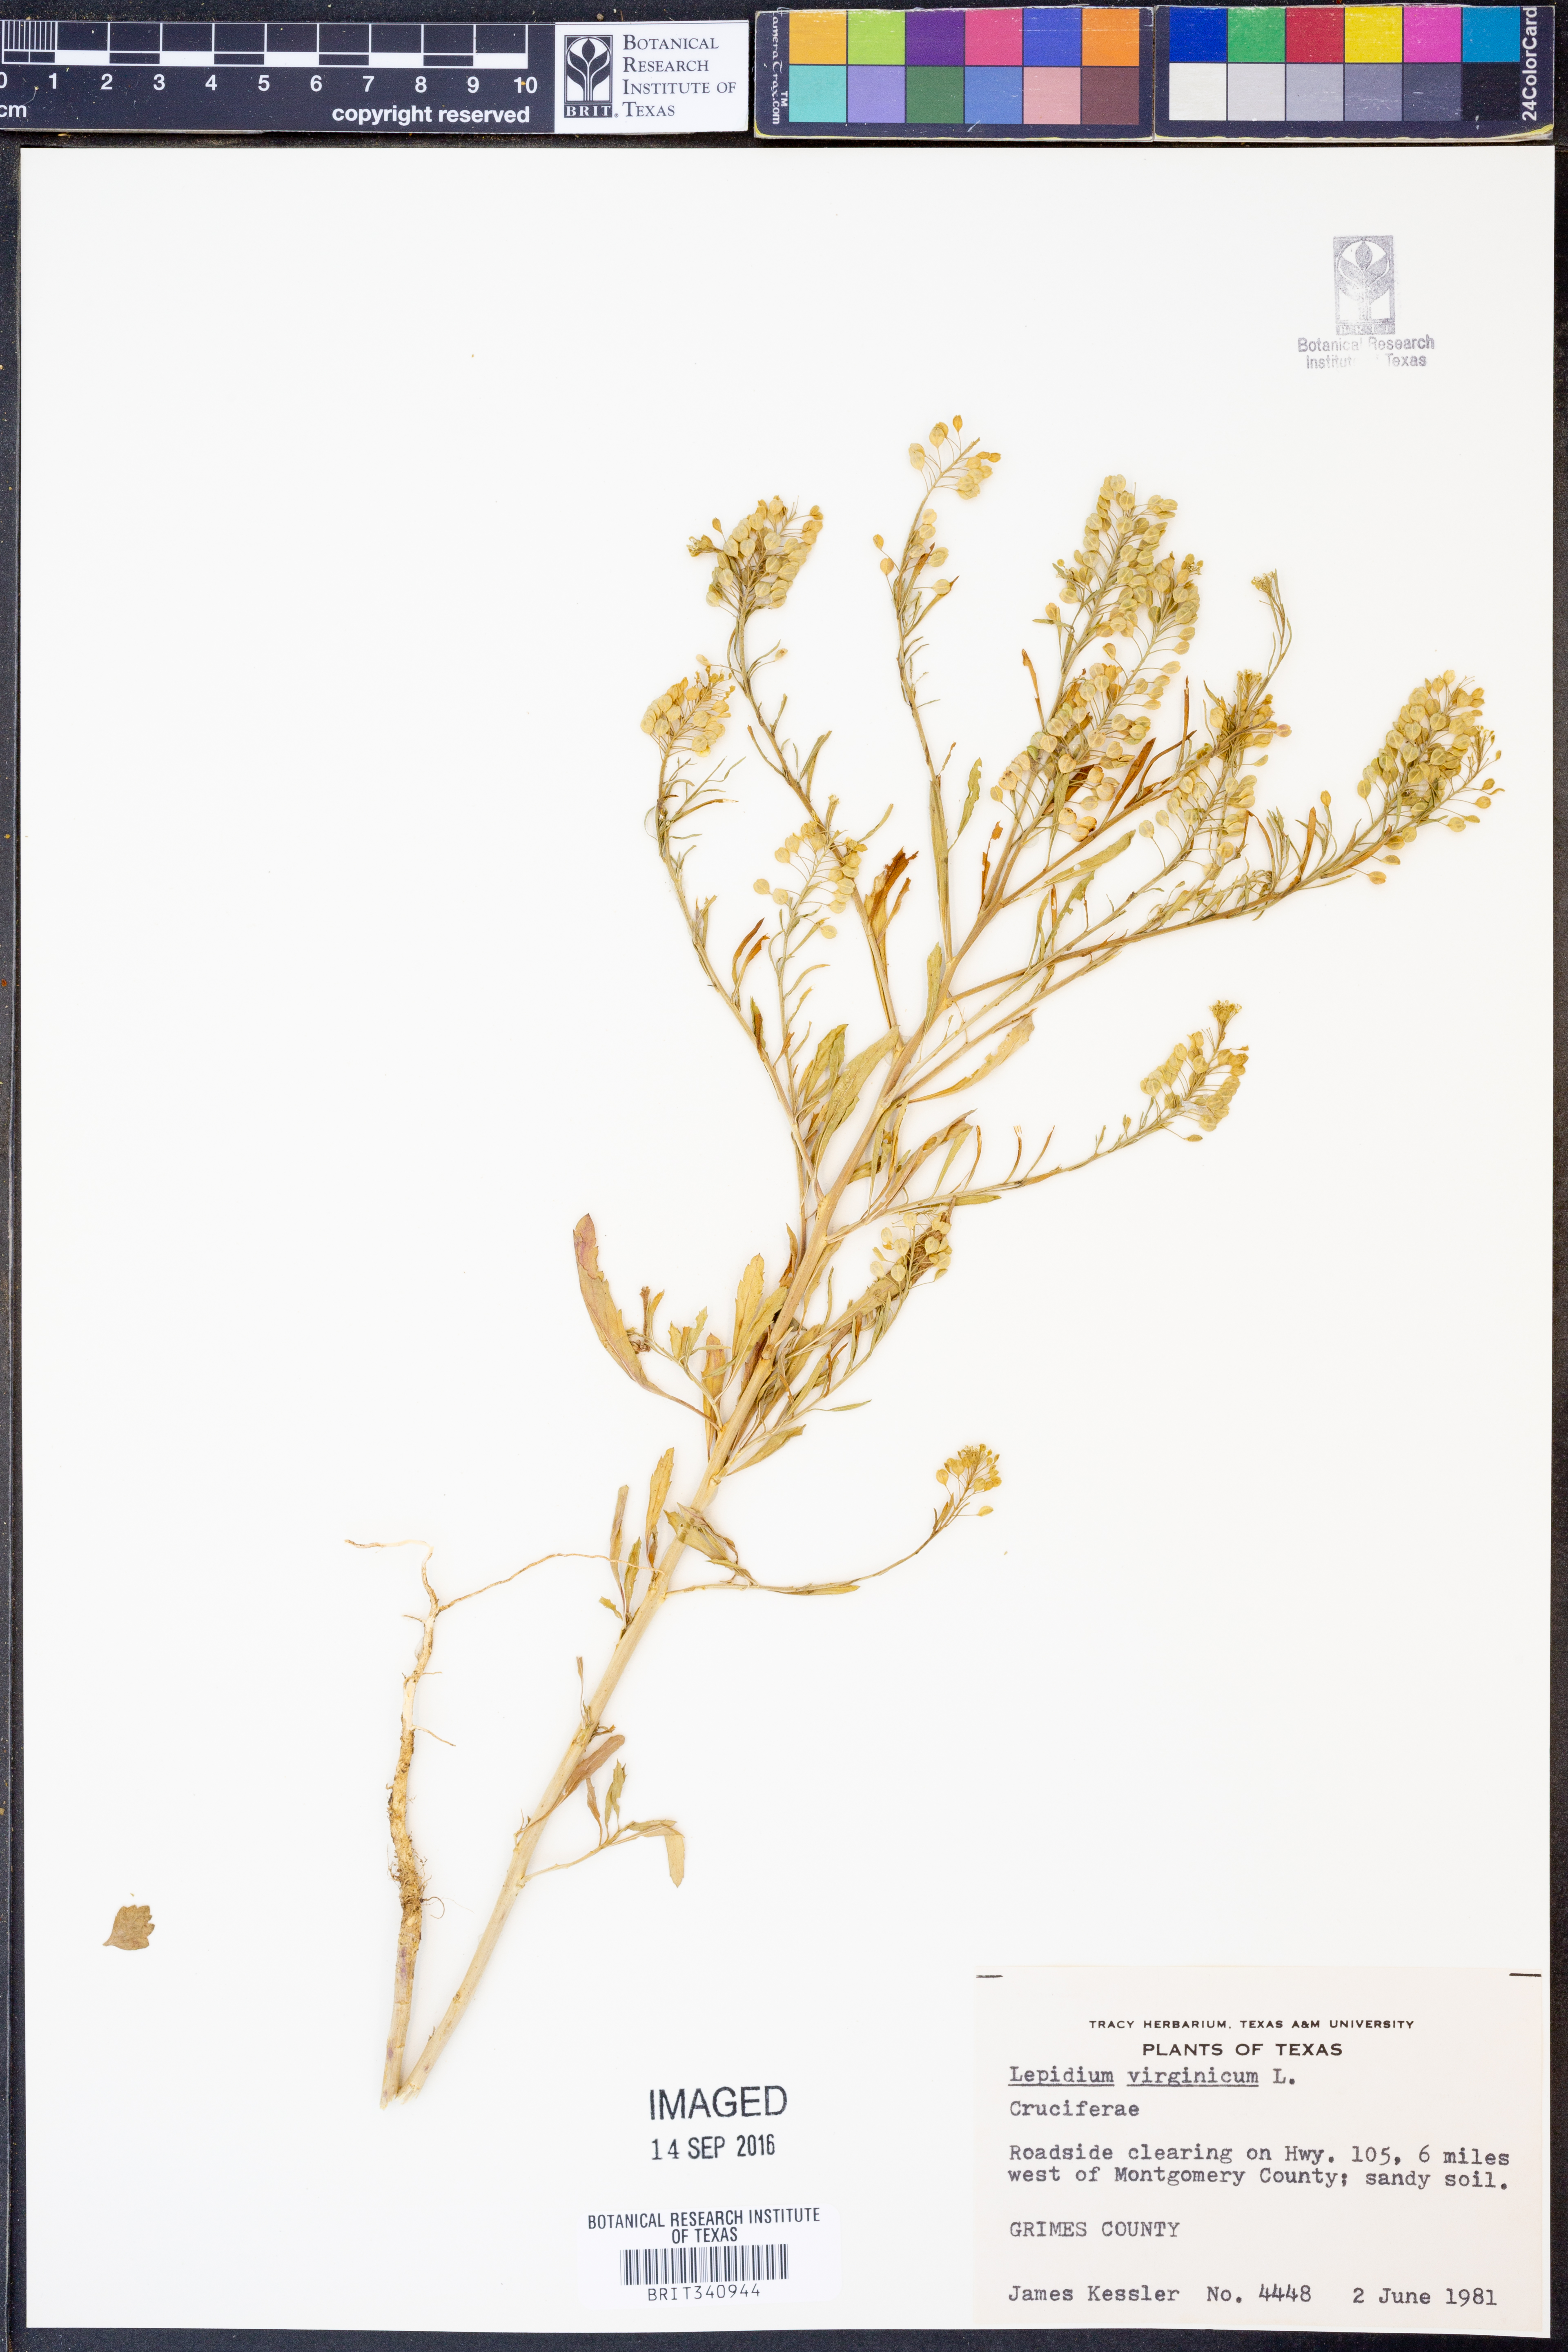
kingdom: Plantae
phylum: Tracheophyta
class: Magnoliopsida
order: Brassicales
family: Brassicaceae
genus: Lepidium
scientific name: Lepidium virginicum
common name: Least pepperwort
